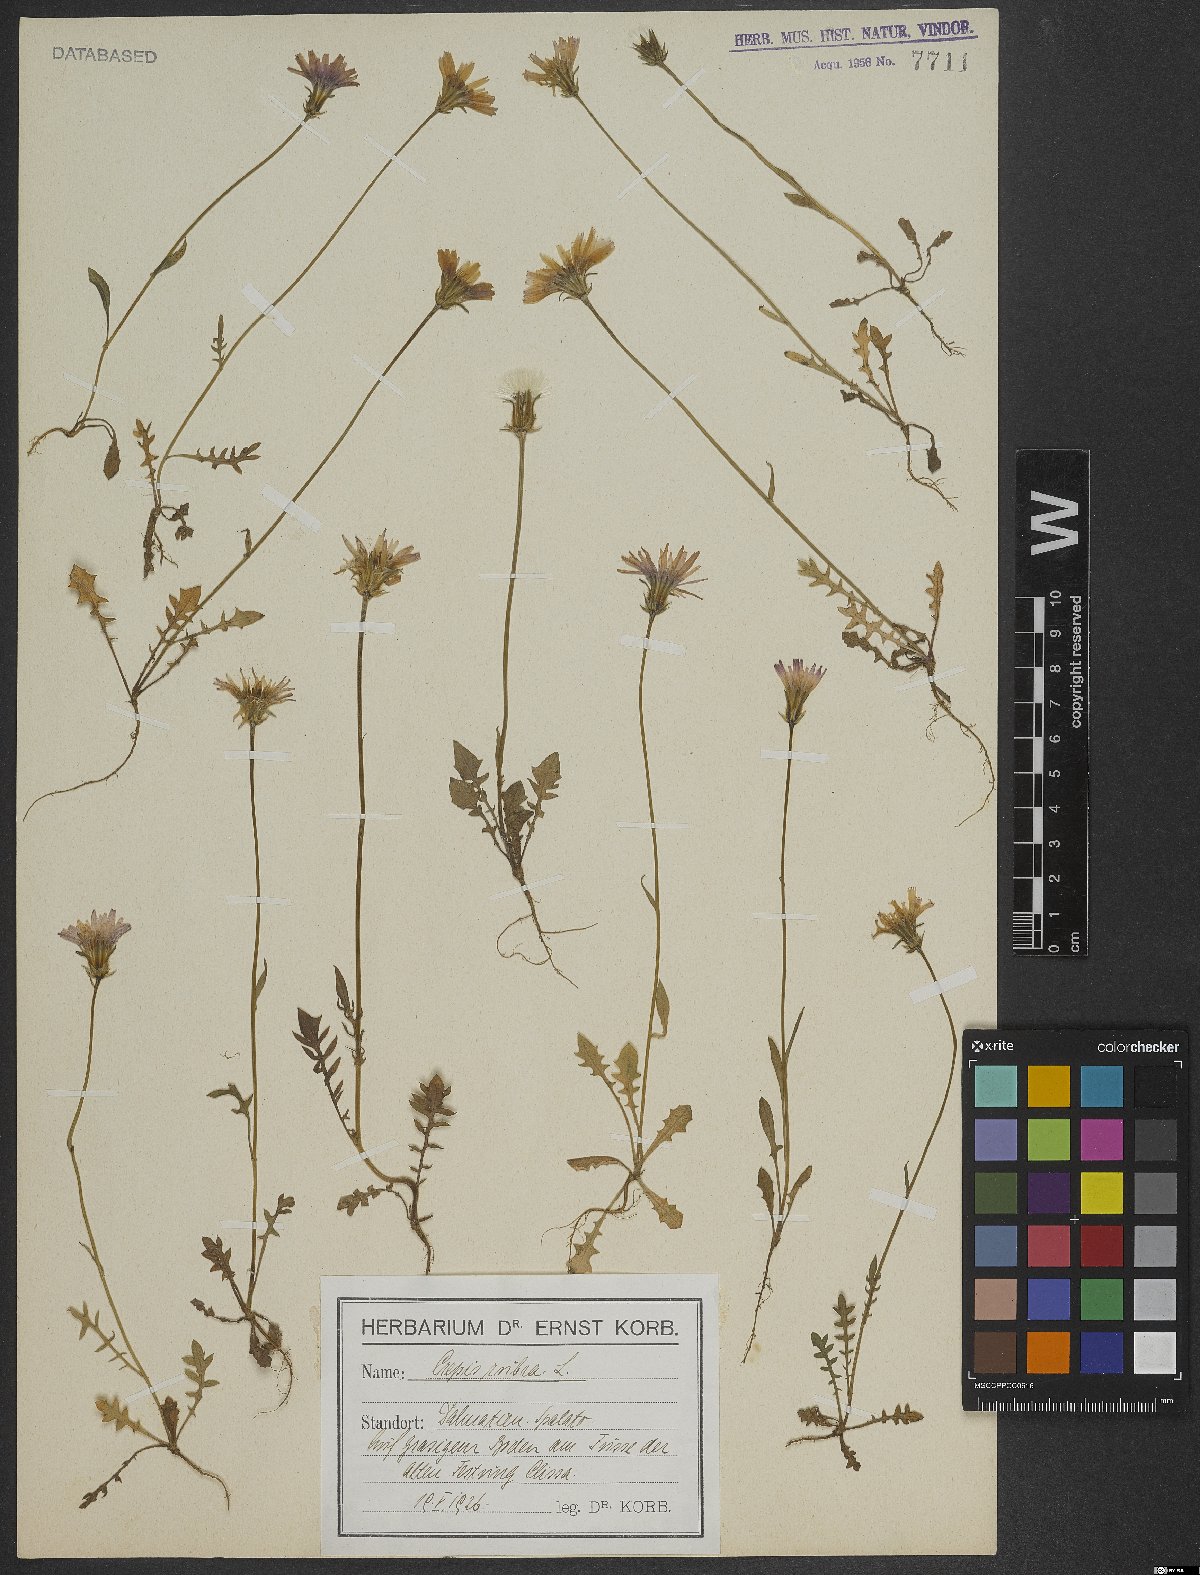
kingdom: Plantae
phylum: Tracheophyta
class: Magnoliopsida
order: Asterales
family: Asteraceae
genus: Crepis
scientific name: Crepis rubra
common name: Pink hawk's-beard
